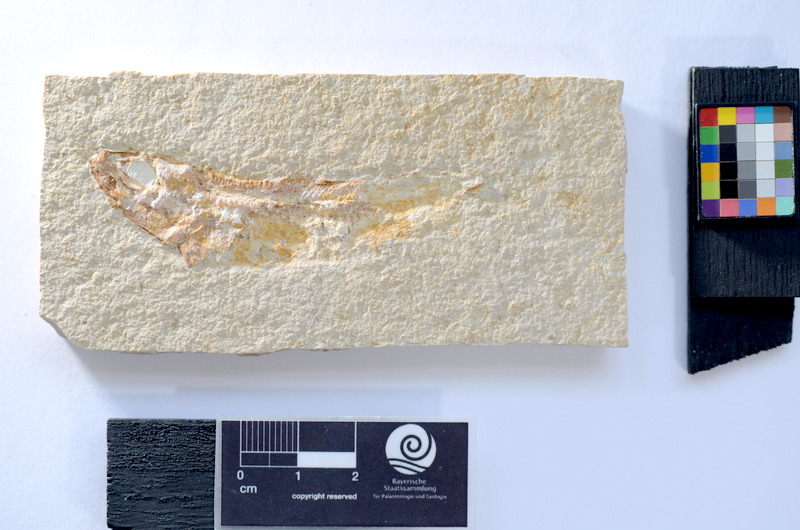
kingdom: Animalia
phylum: Chordata
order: Salmoniformes
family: Orthogonikleithridae
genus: Leptolepides
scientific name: Leptolepides
